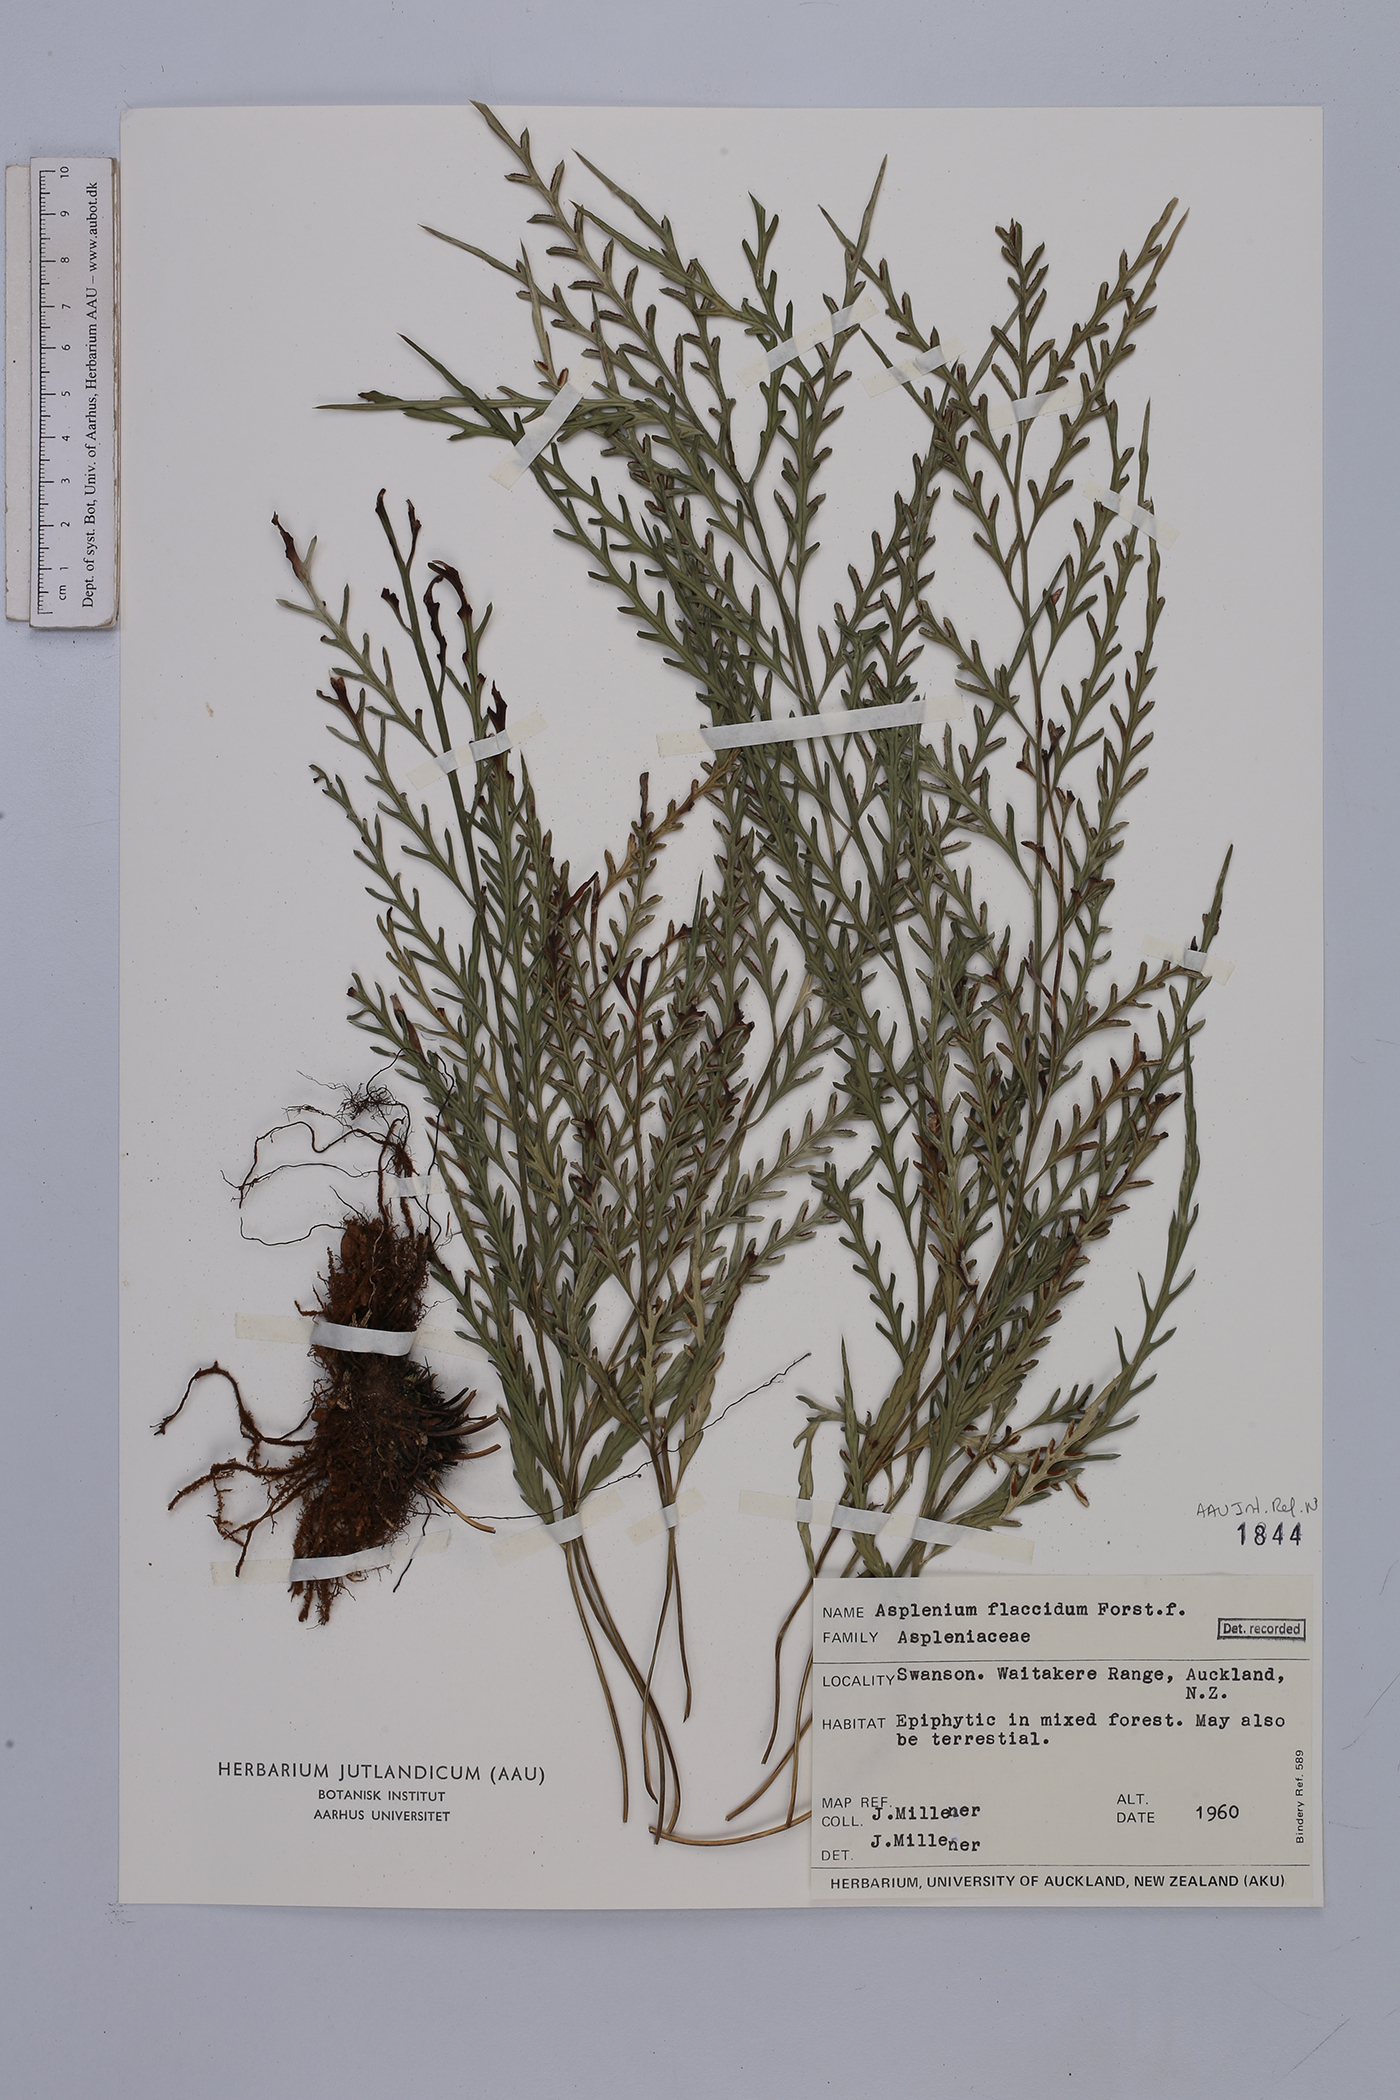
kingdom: Plantae
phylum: Tracheophyta
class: Polypodiopsida
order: Polypodiales
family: Aspleniaceae
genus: Asplenium
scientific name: Asplenium flaccidum
